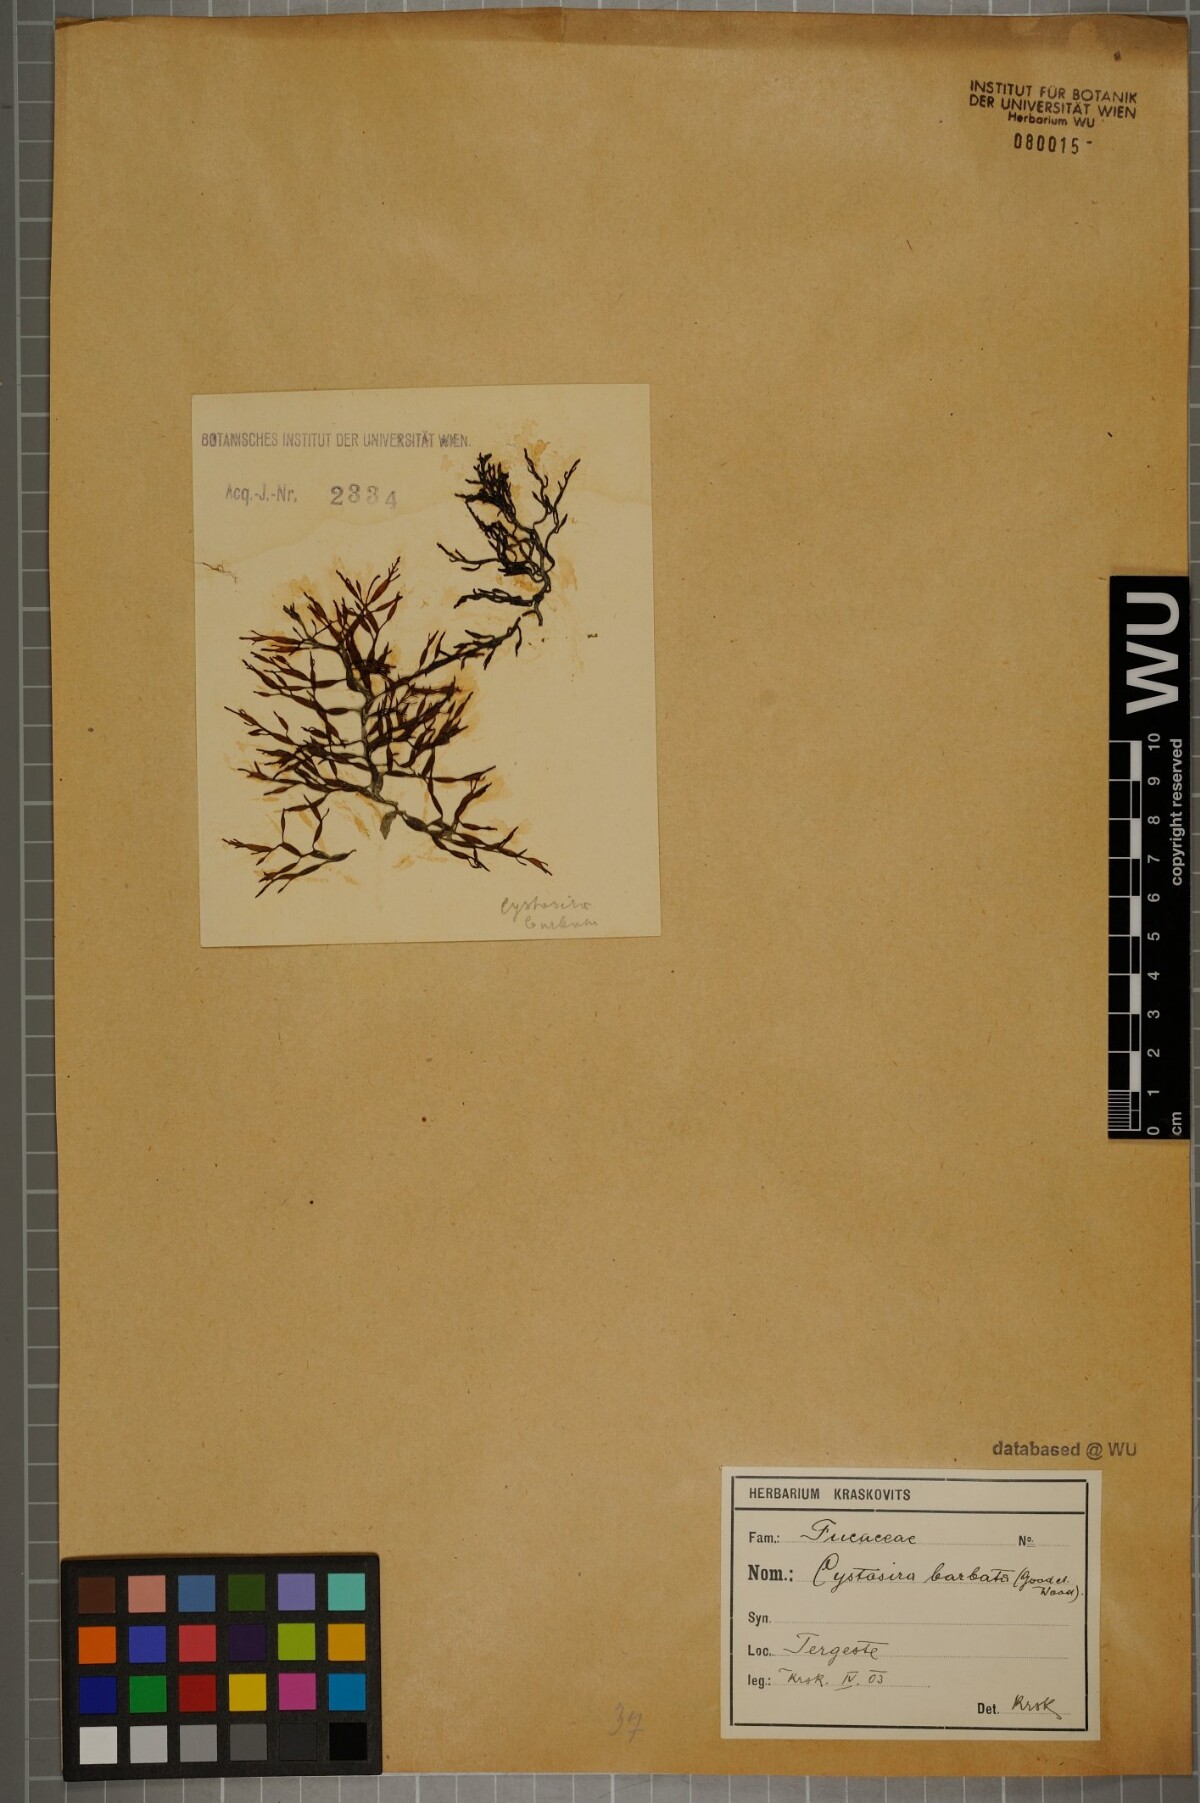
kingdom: Chromista
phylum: Ochrophyta
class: Phaeophyceae
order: Fucales
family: Sargassaceae
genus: Cystoseira
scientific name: Cystoseira Gongolaria barbata
